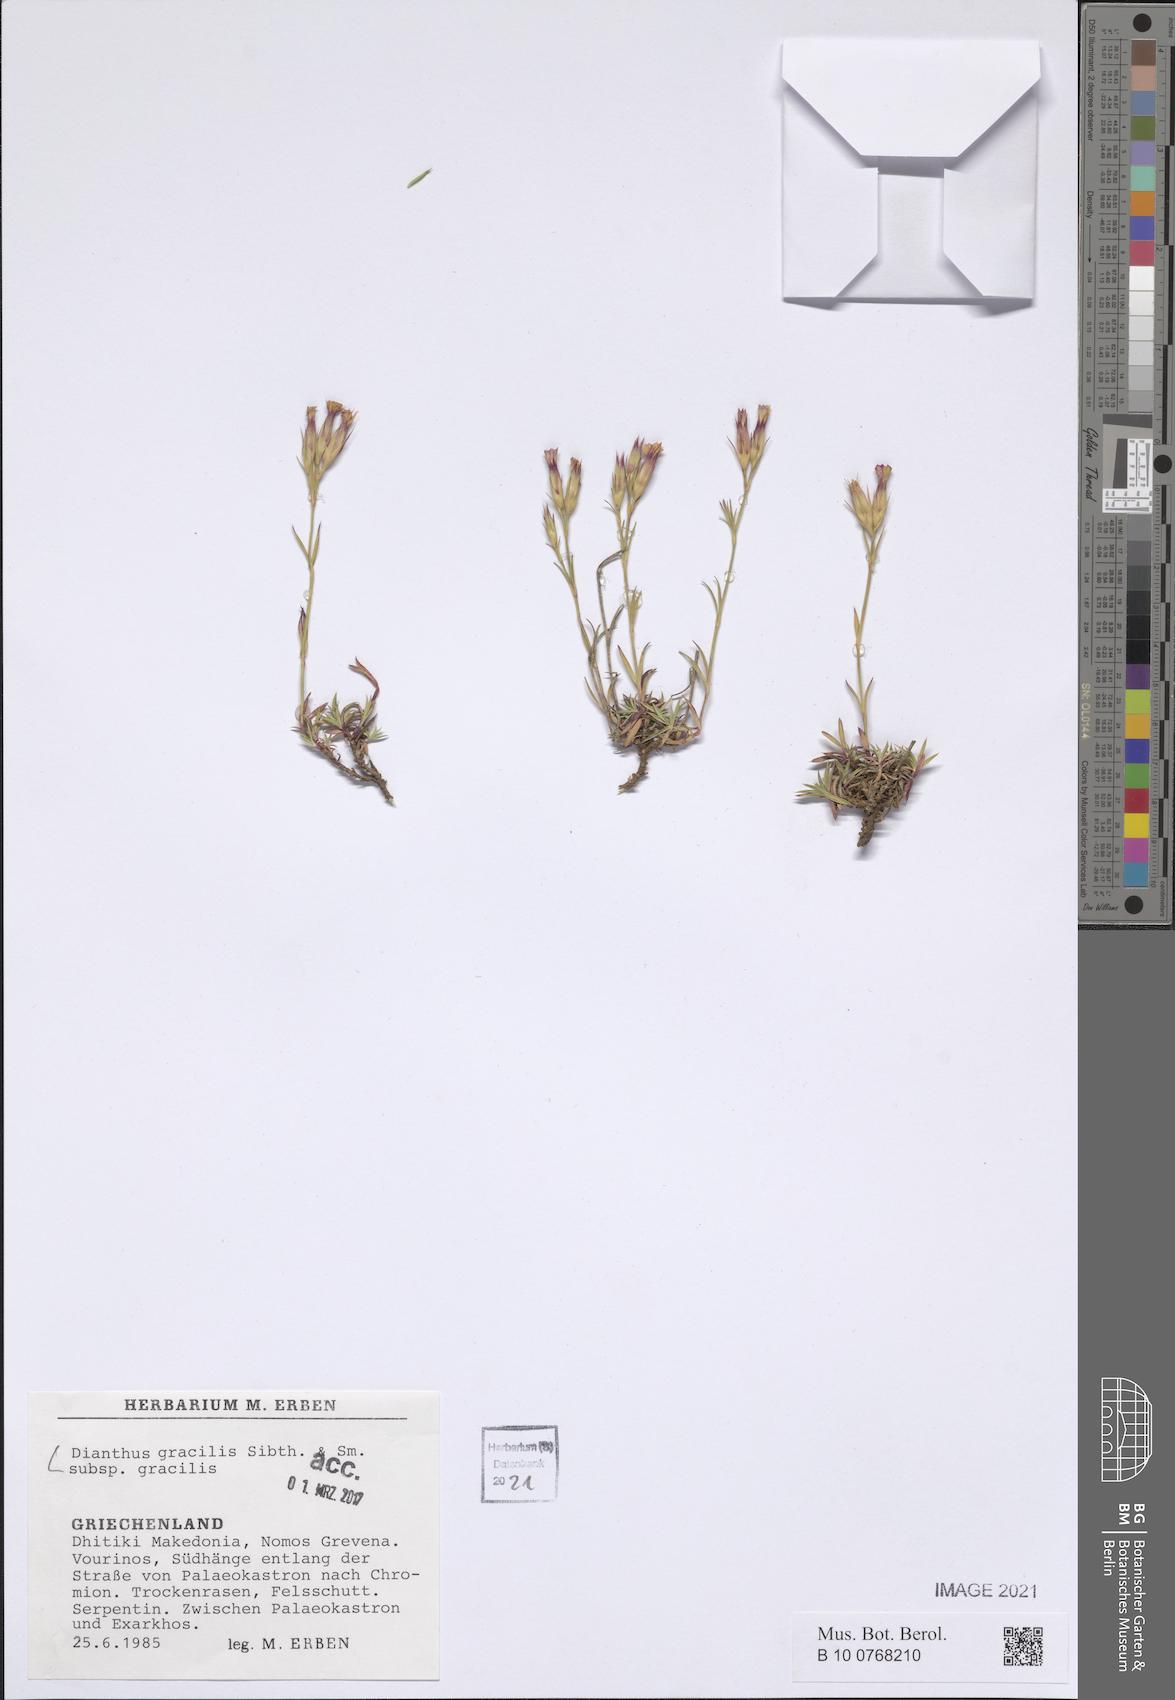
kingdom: Plantae
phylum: Tracheophyta
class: Magnoliopsida
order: Caryophyllales
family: Caryophyllaceae
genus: Dianthus
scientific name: Dianthus gracilis
